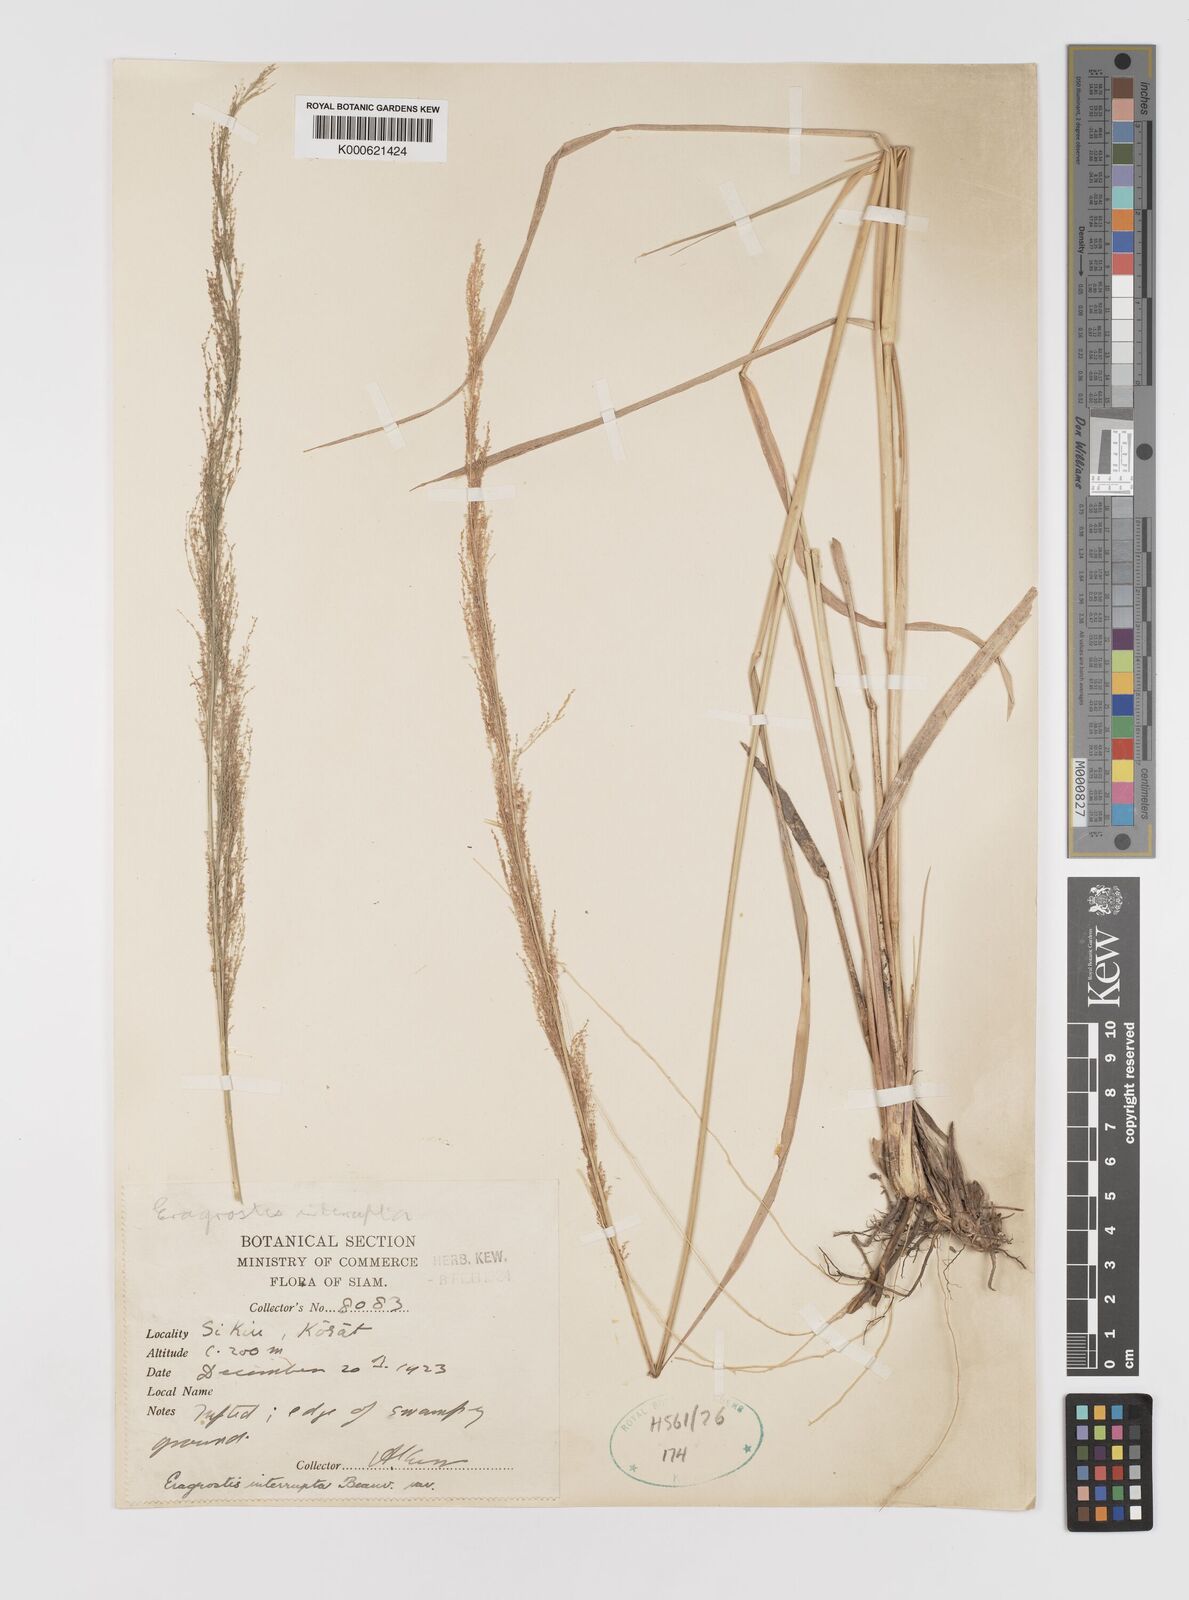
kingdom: Plantae
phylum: Tracheophyta
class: Liliopsida
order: Poales
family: Poaceae
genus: Eragrostis
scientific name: Eragrostis japonica
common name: Pond lovegrass
